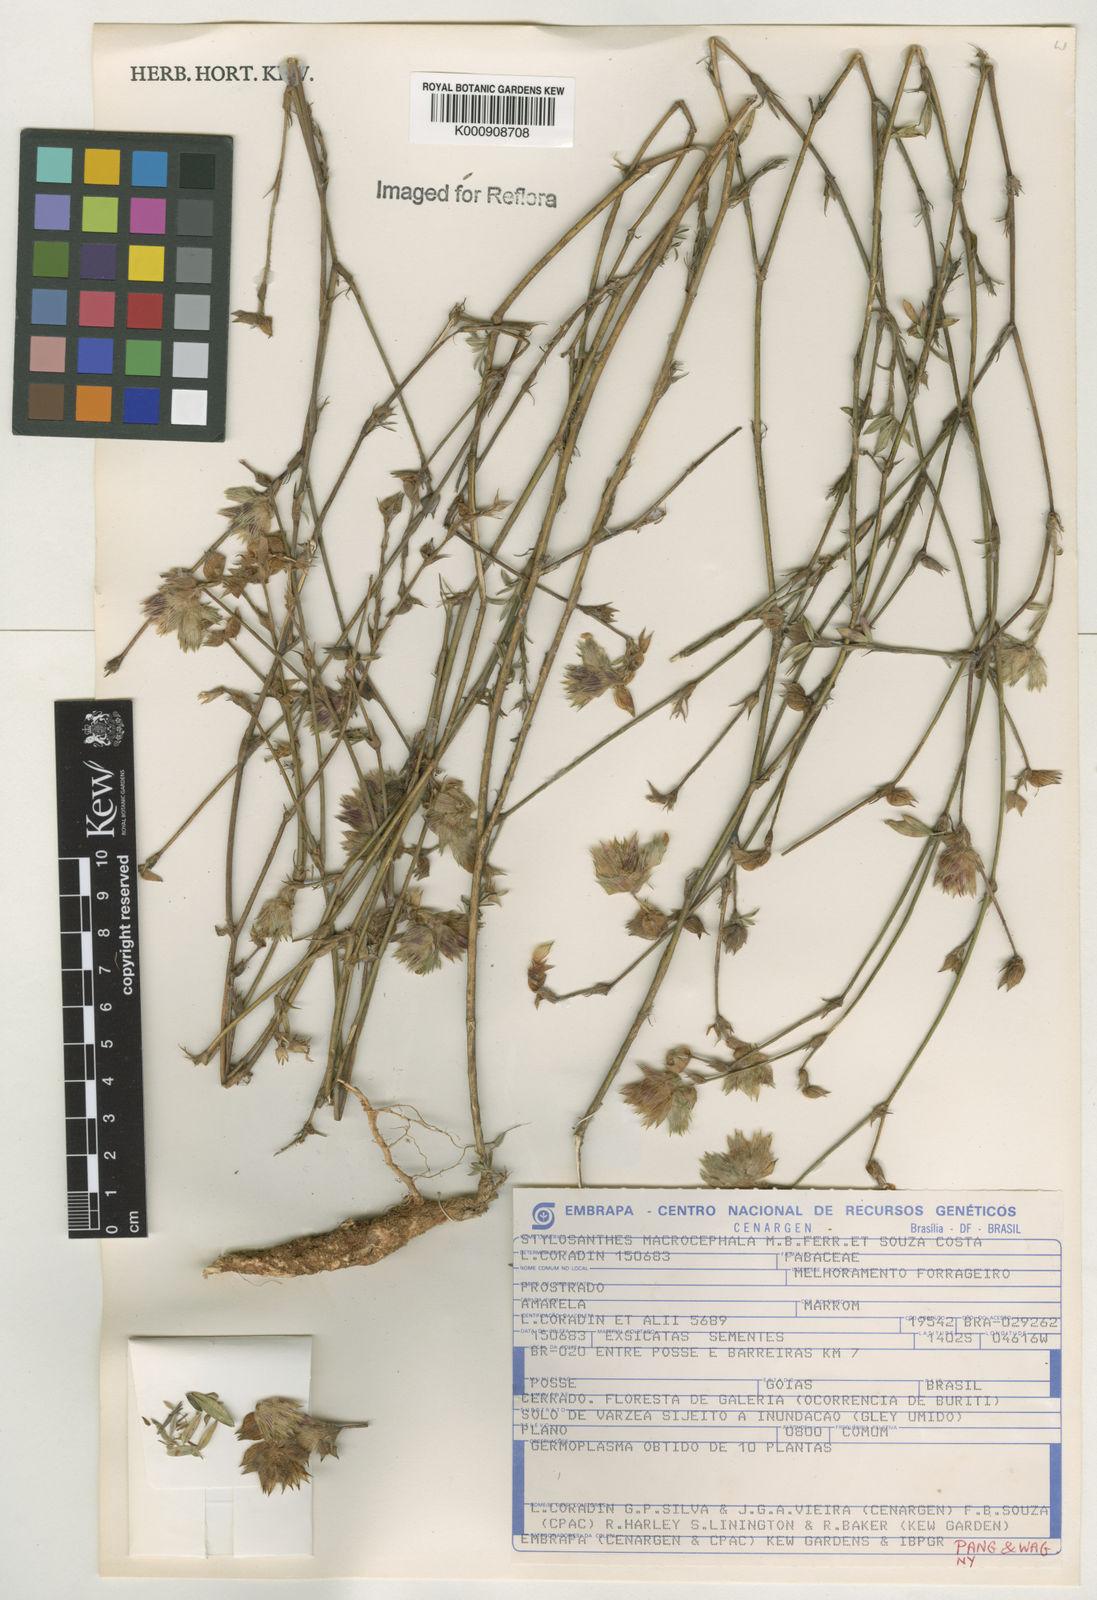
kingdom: Plantae
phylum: Tracheophyta
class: Magnoliopsida
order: Fabales
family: Fabaceae
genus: Stylosanthes
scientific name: Stylosanthes macrocephala
